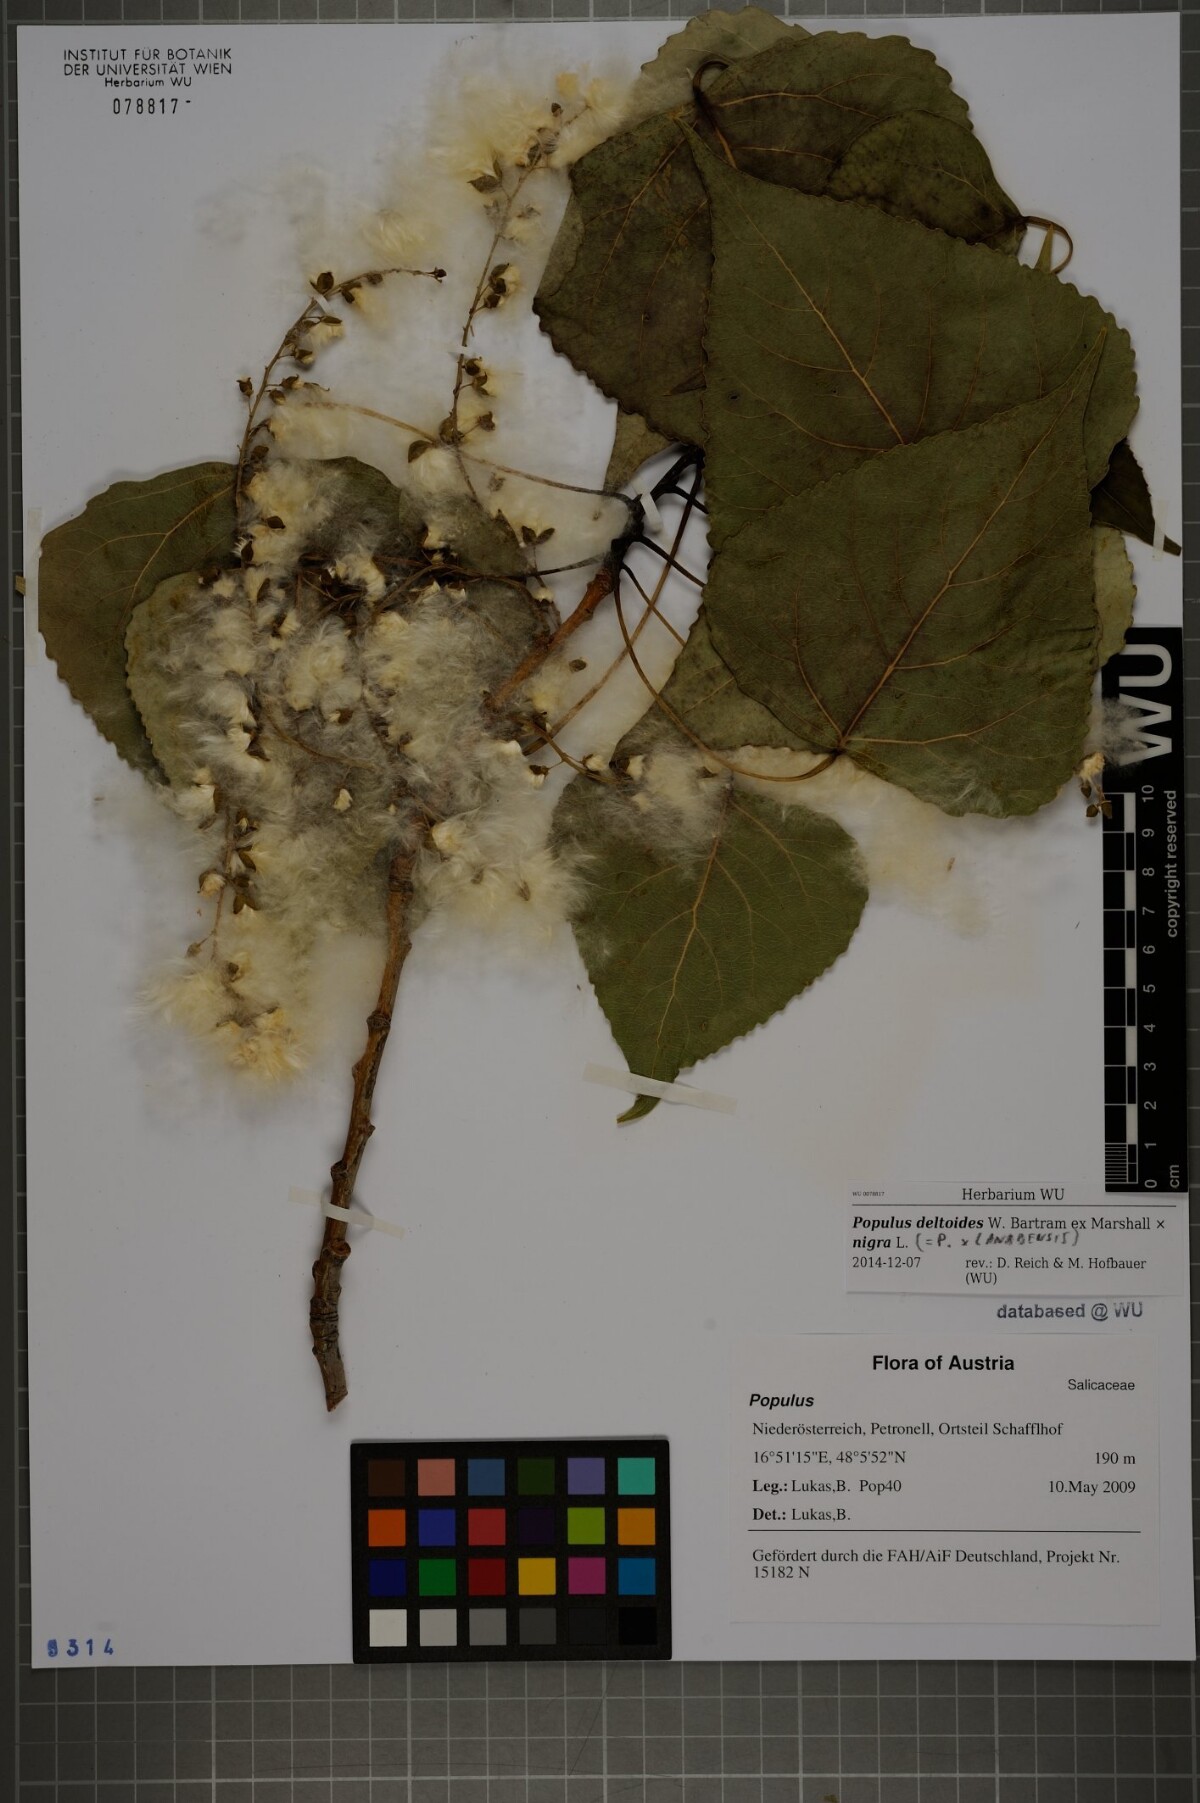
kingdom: Plantae
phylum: Tracheophyta
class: Magnoliopsida
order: Malpighiales
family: Salicaceae
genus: Populus
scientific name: Populus canadensis
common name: Carolina poplar
